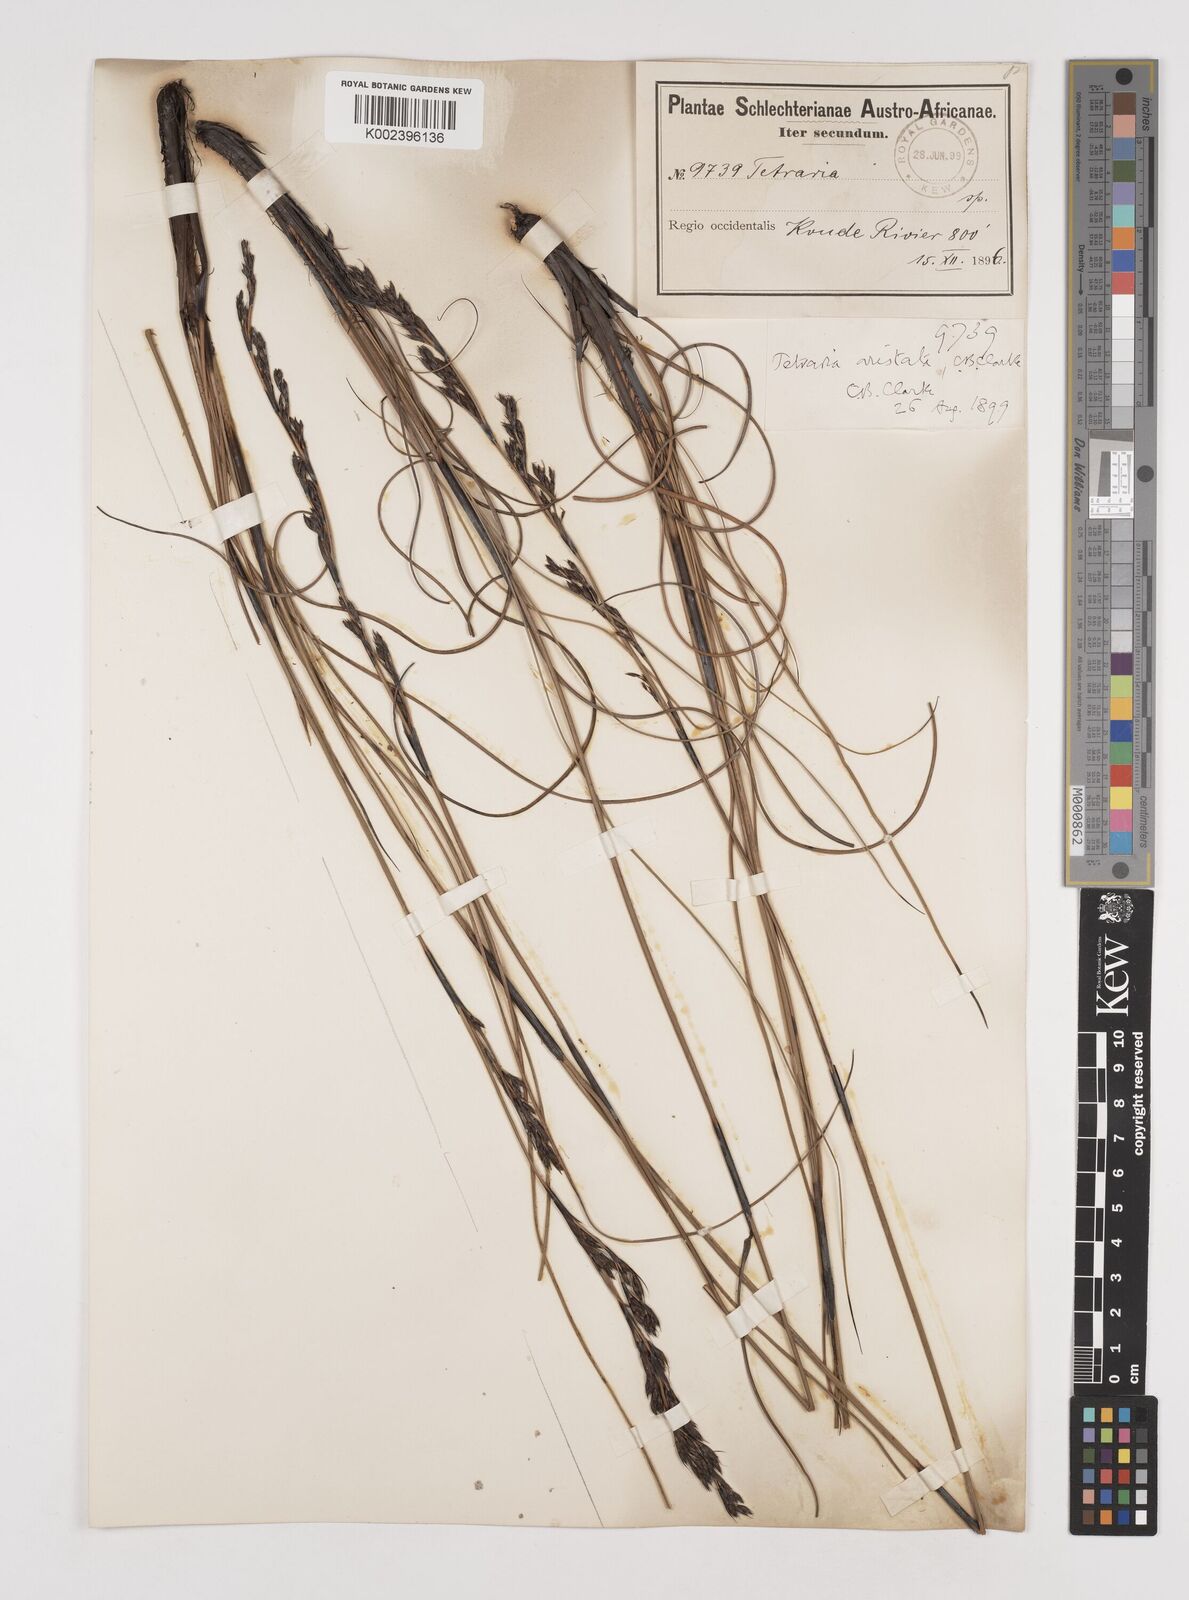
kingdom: Plantae
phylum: Tracheophyta
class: Liliopsida
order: Poales
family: Cyperaceae
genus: Tetraria
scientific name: Tetraria flexuosa
